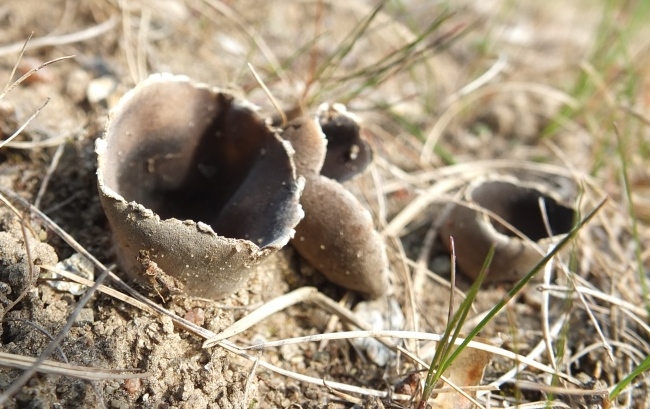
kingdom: Fungi
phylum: Ascomycota
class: Pezizomycetes
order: Pezizales
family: Helvellaceae
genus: Dissingia
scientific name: Dissingia leucomelaena
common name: sorthvid foldhat
